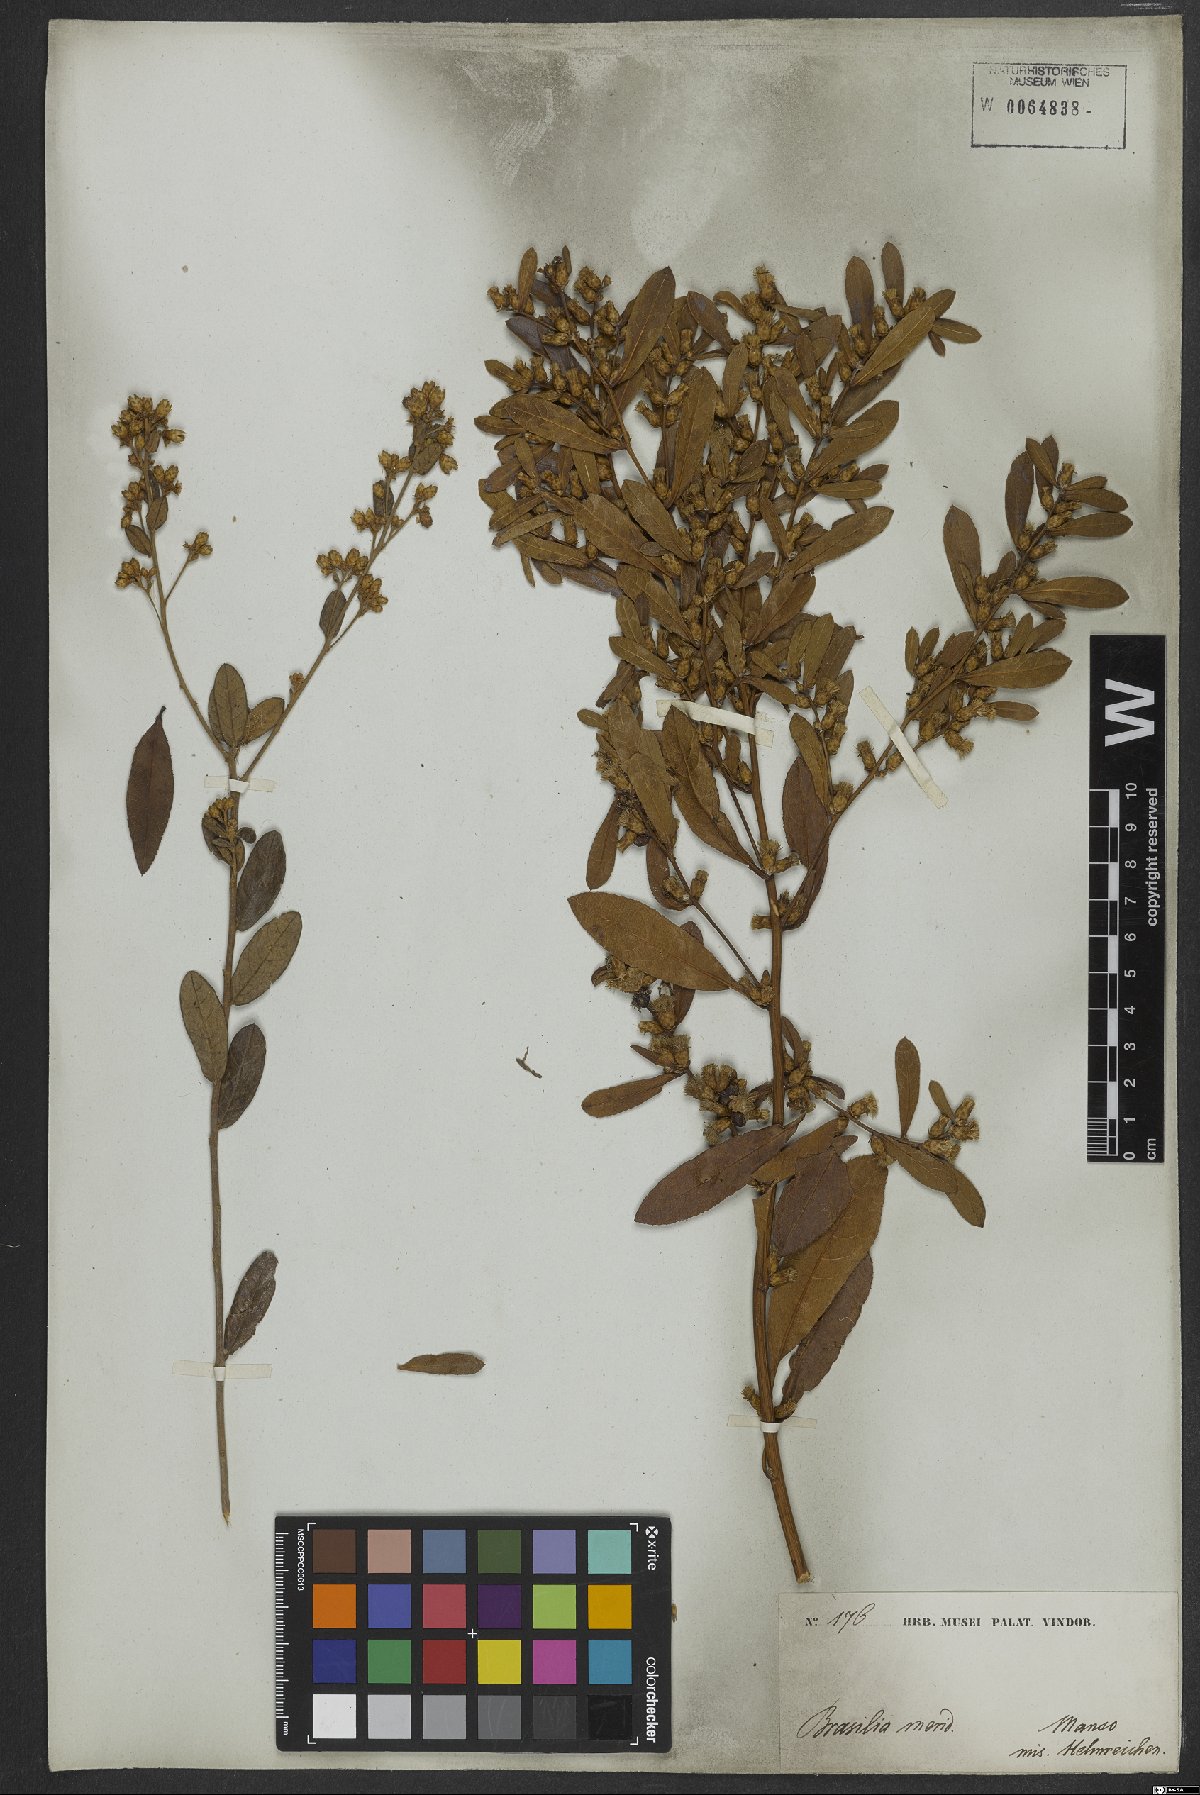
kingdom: Plantae
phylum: Tracheophyta
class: Magnoliopsida
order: Asterales
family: Asteraceae
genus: Lessingianthus
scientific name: Lessingianthus obtusatus
